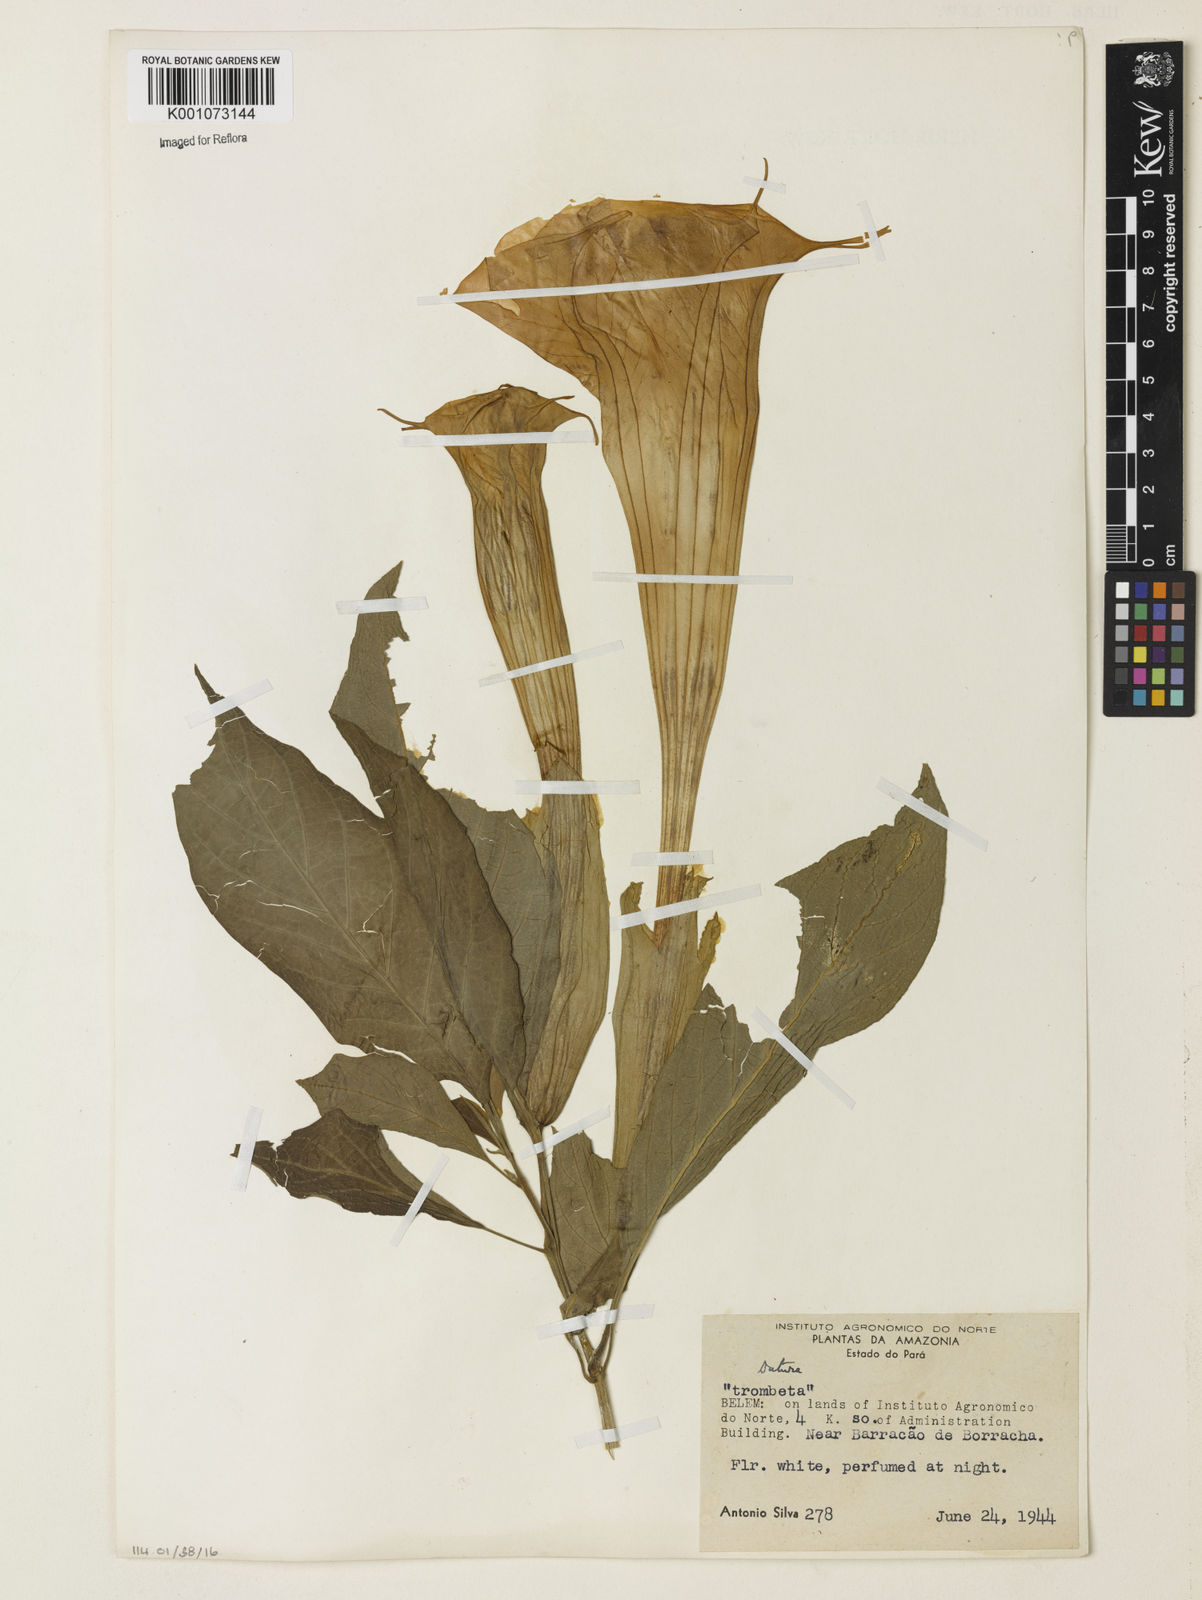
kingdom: Plantae
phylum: Tracheophyta
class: Magnoliopsida
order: Solanales
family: Solanaceae
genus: Brugmansia
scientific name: Brugmansia
